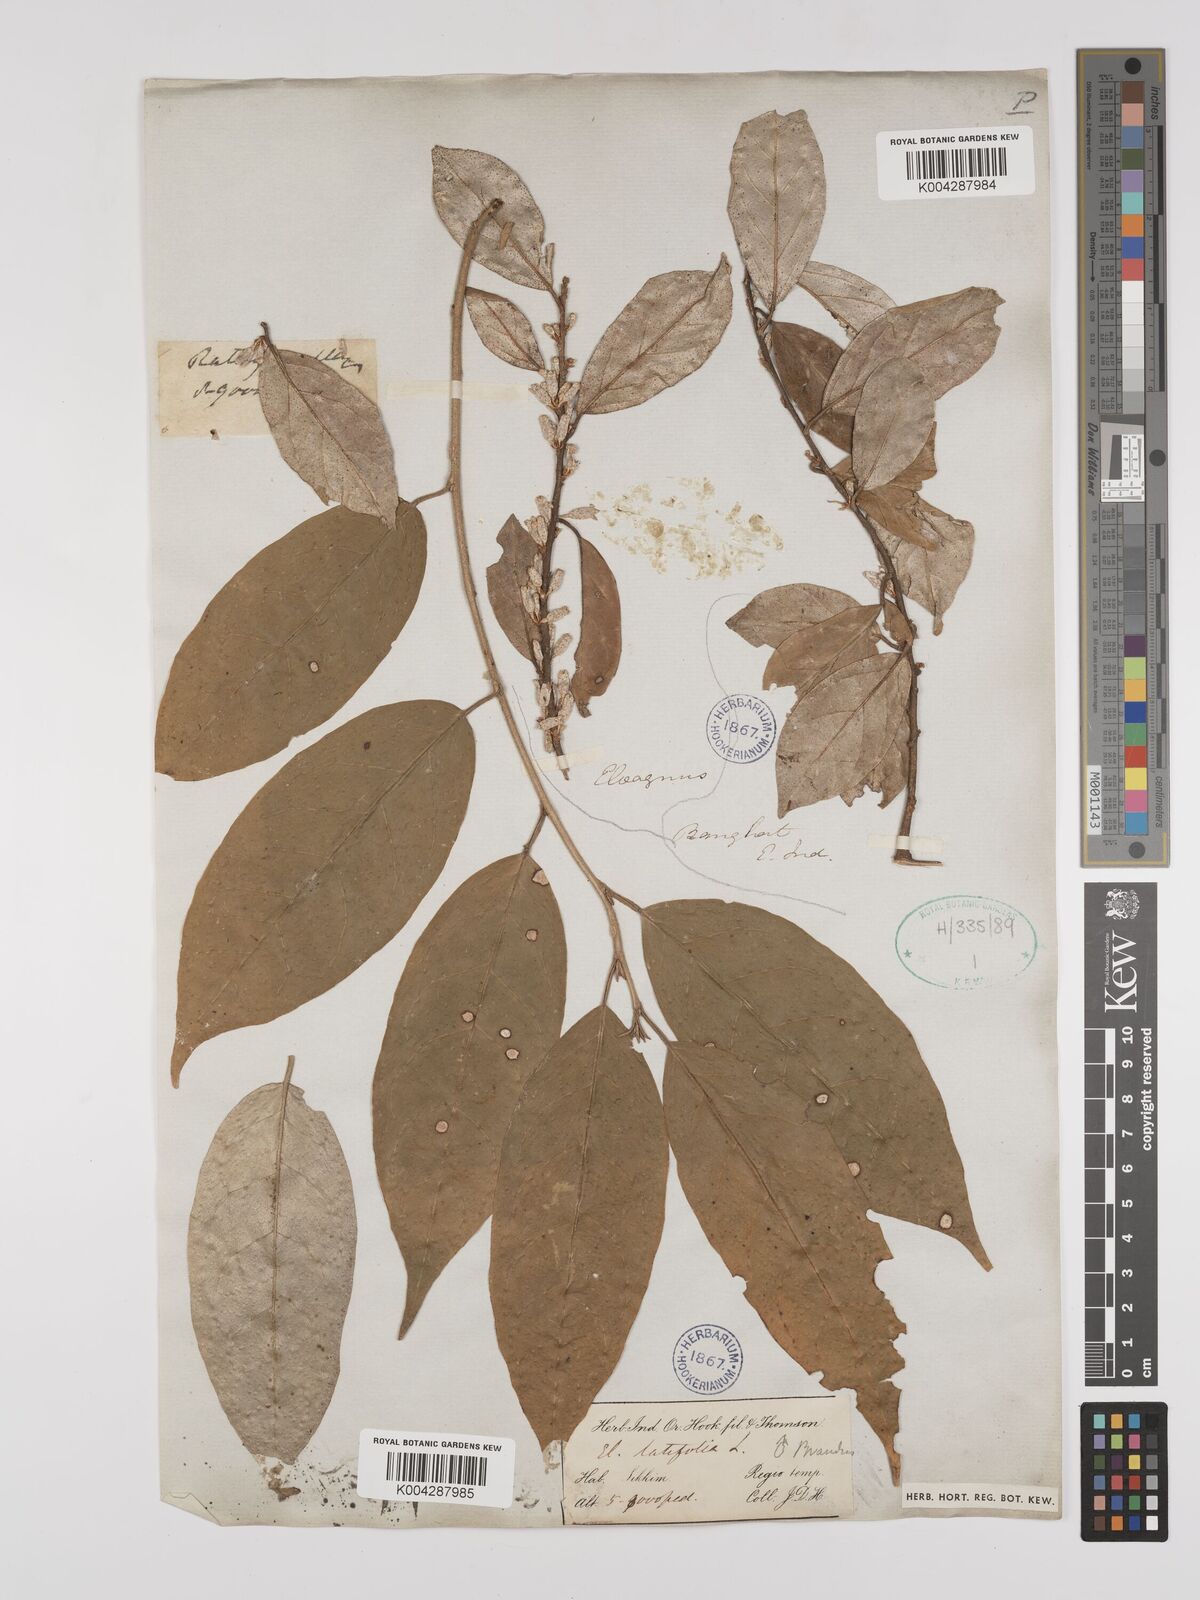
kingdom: Plantae
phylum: Tracheophyta
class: Magnoliopsida
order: Rosales
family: Elaeagnaceae
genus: Elaeagnus
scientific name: Elaeagnus latifolia
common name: Oleaster
